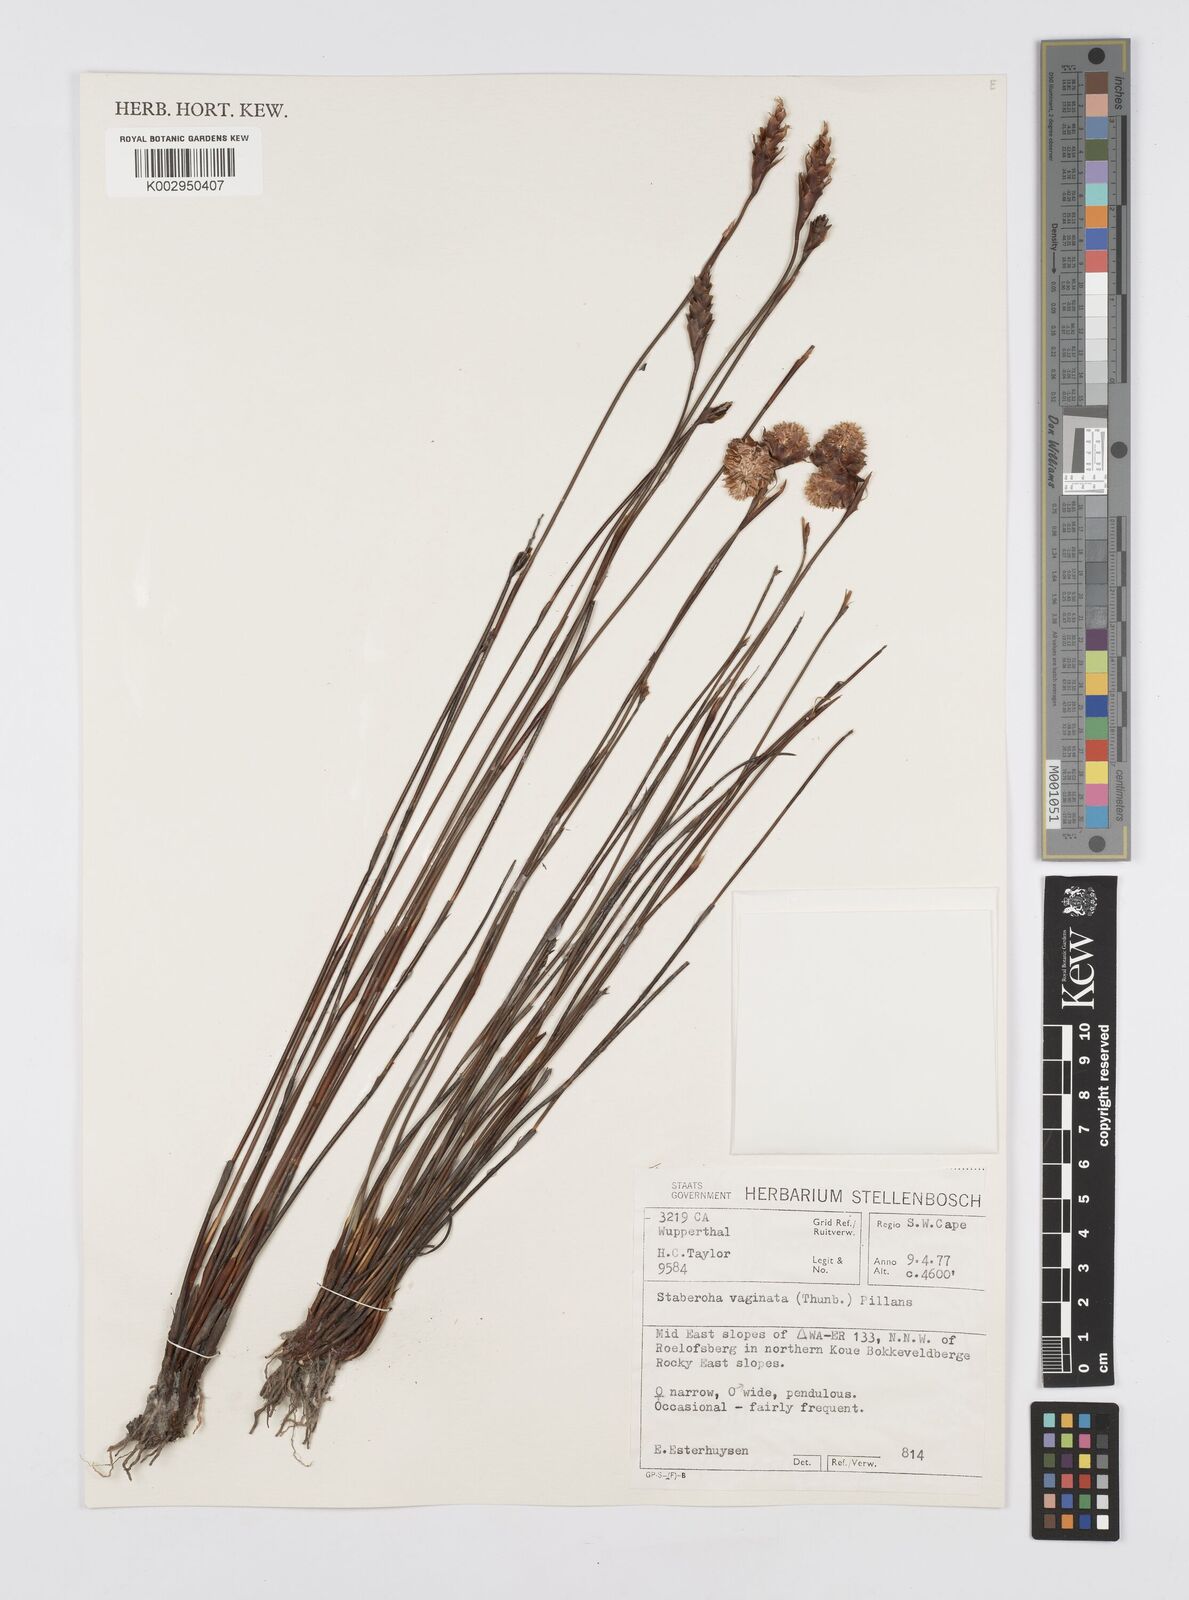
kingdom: Plantae
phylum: Tracheophyta
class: Liliopsida
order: Poales
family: Restionaceae
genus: Staberoha
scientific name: Staberoha vaginata
